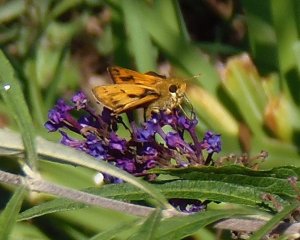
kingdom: Animalia
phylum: Arthropoda
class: Insecta
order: Lepidoptera
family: Hesperiidae
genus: Hylephila
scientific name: Hylephila phyleus
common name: Fiery Skipper
